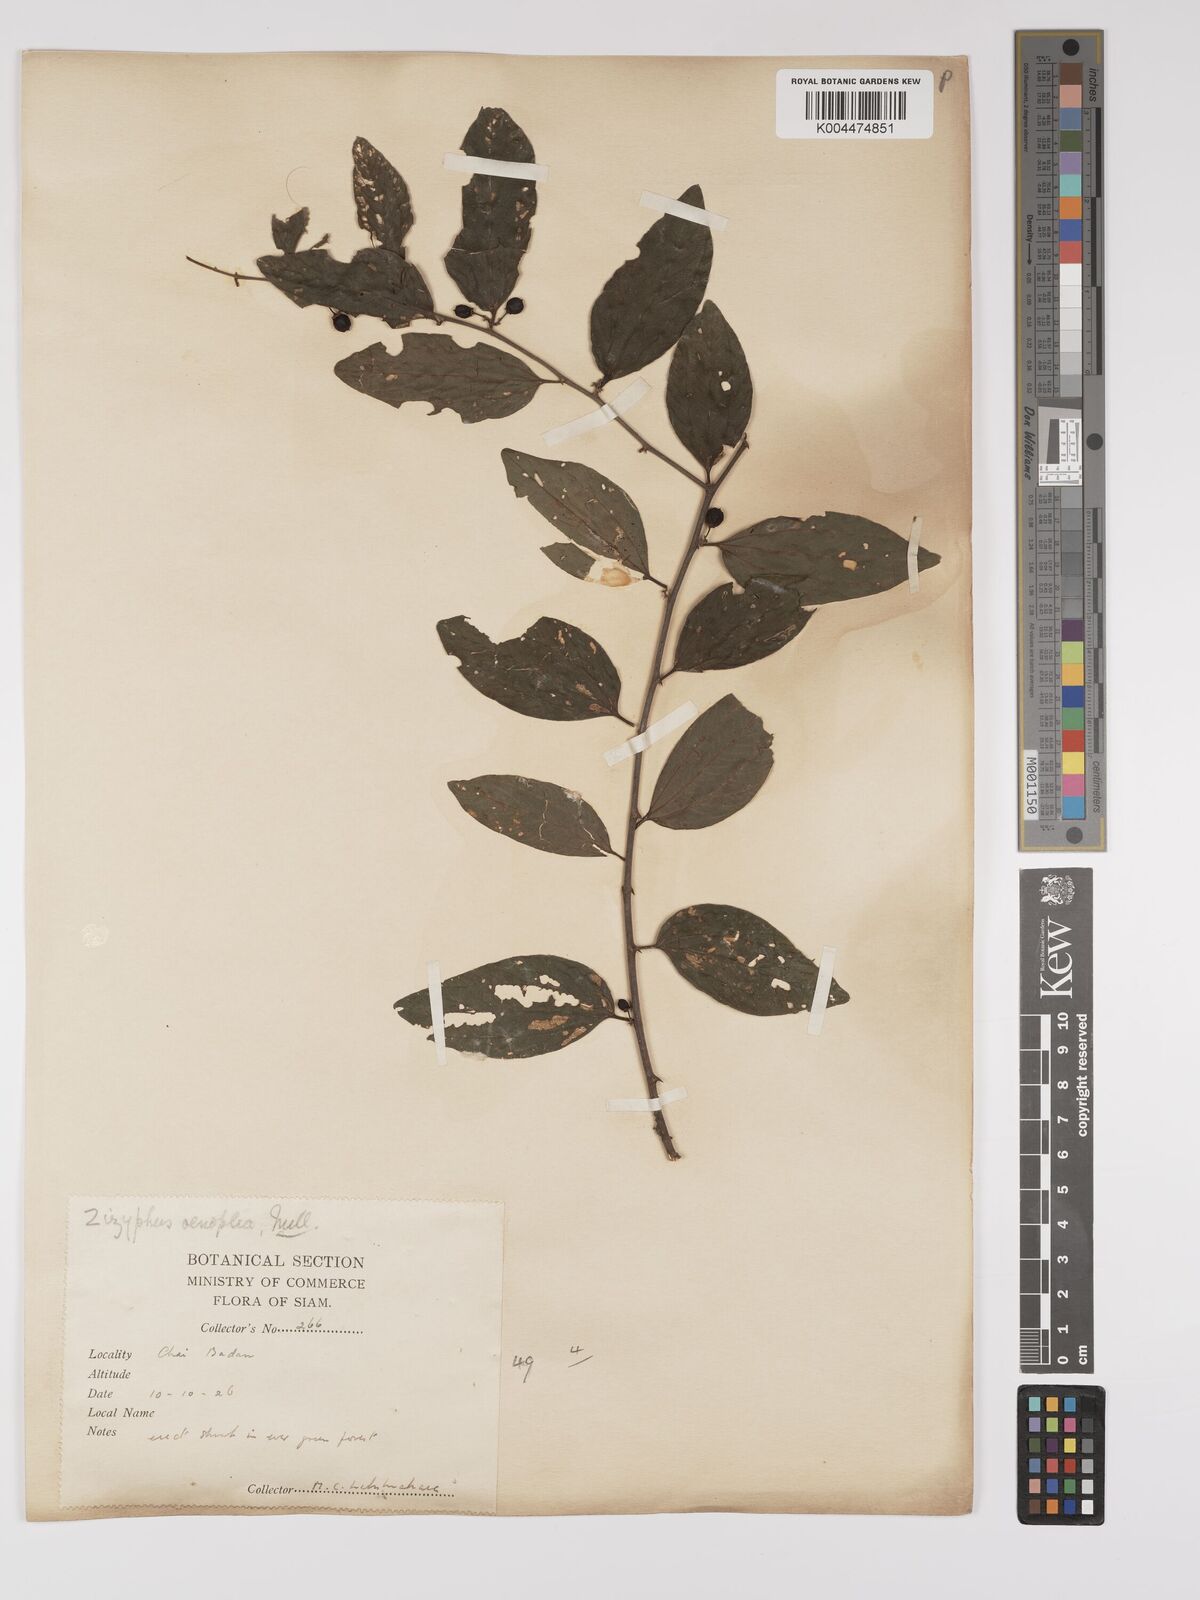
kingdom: Plantae
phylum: Tracheophyta
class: Magnoliopsida
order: Rosales
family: Rhamnaceae
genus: Ziziphus
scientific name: Ziziphus oenopolia
